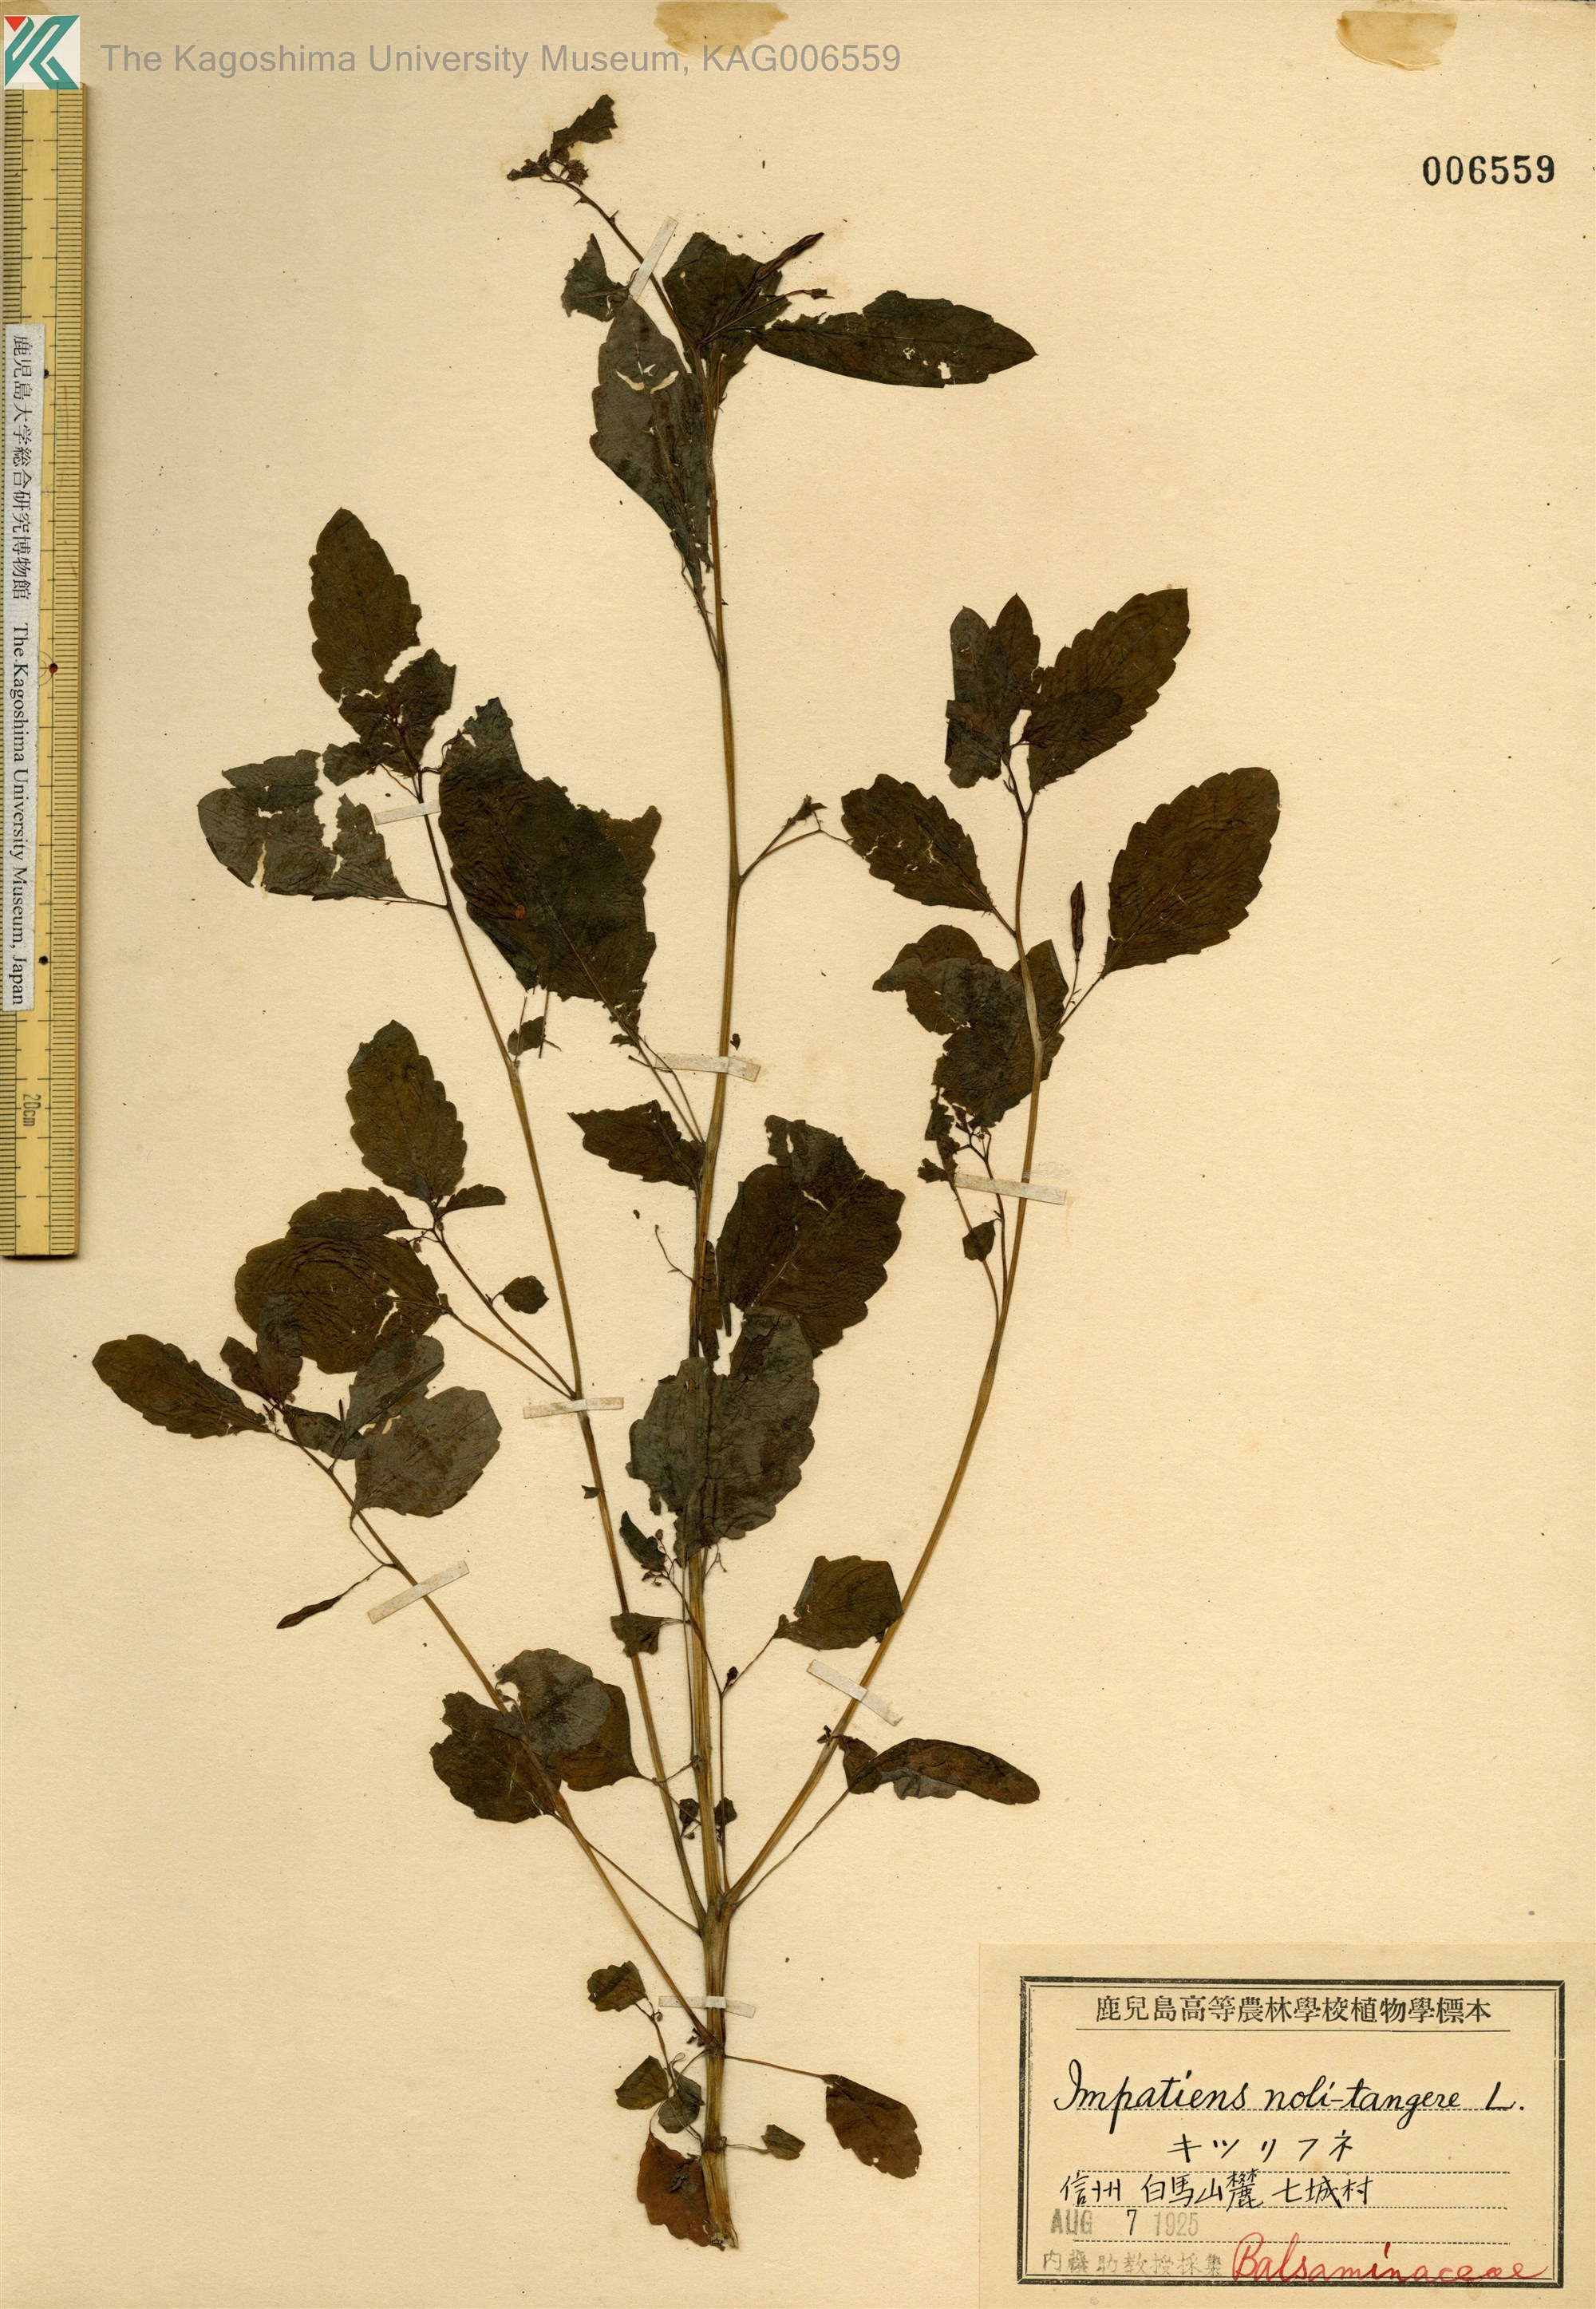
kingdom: Plantae
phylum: Tracheophyta
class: Magnoliopsida
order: Ericales
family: Balsaminaceae
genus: Impatiens
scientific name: Impatiens noli-tangere
